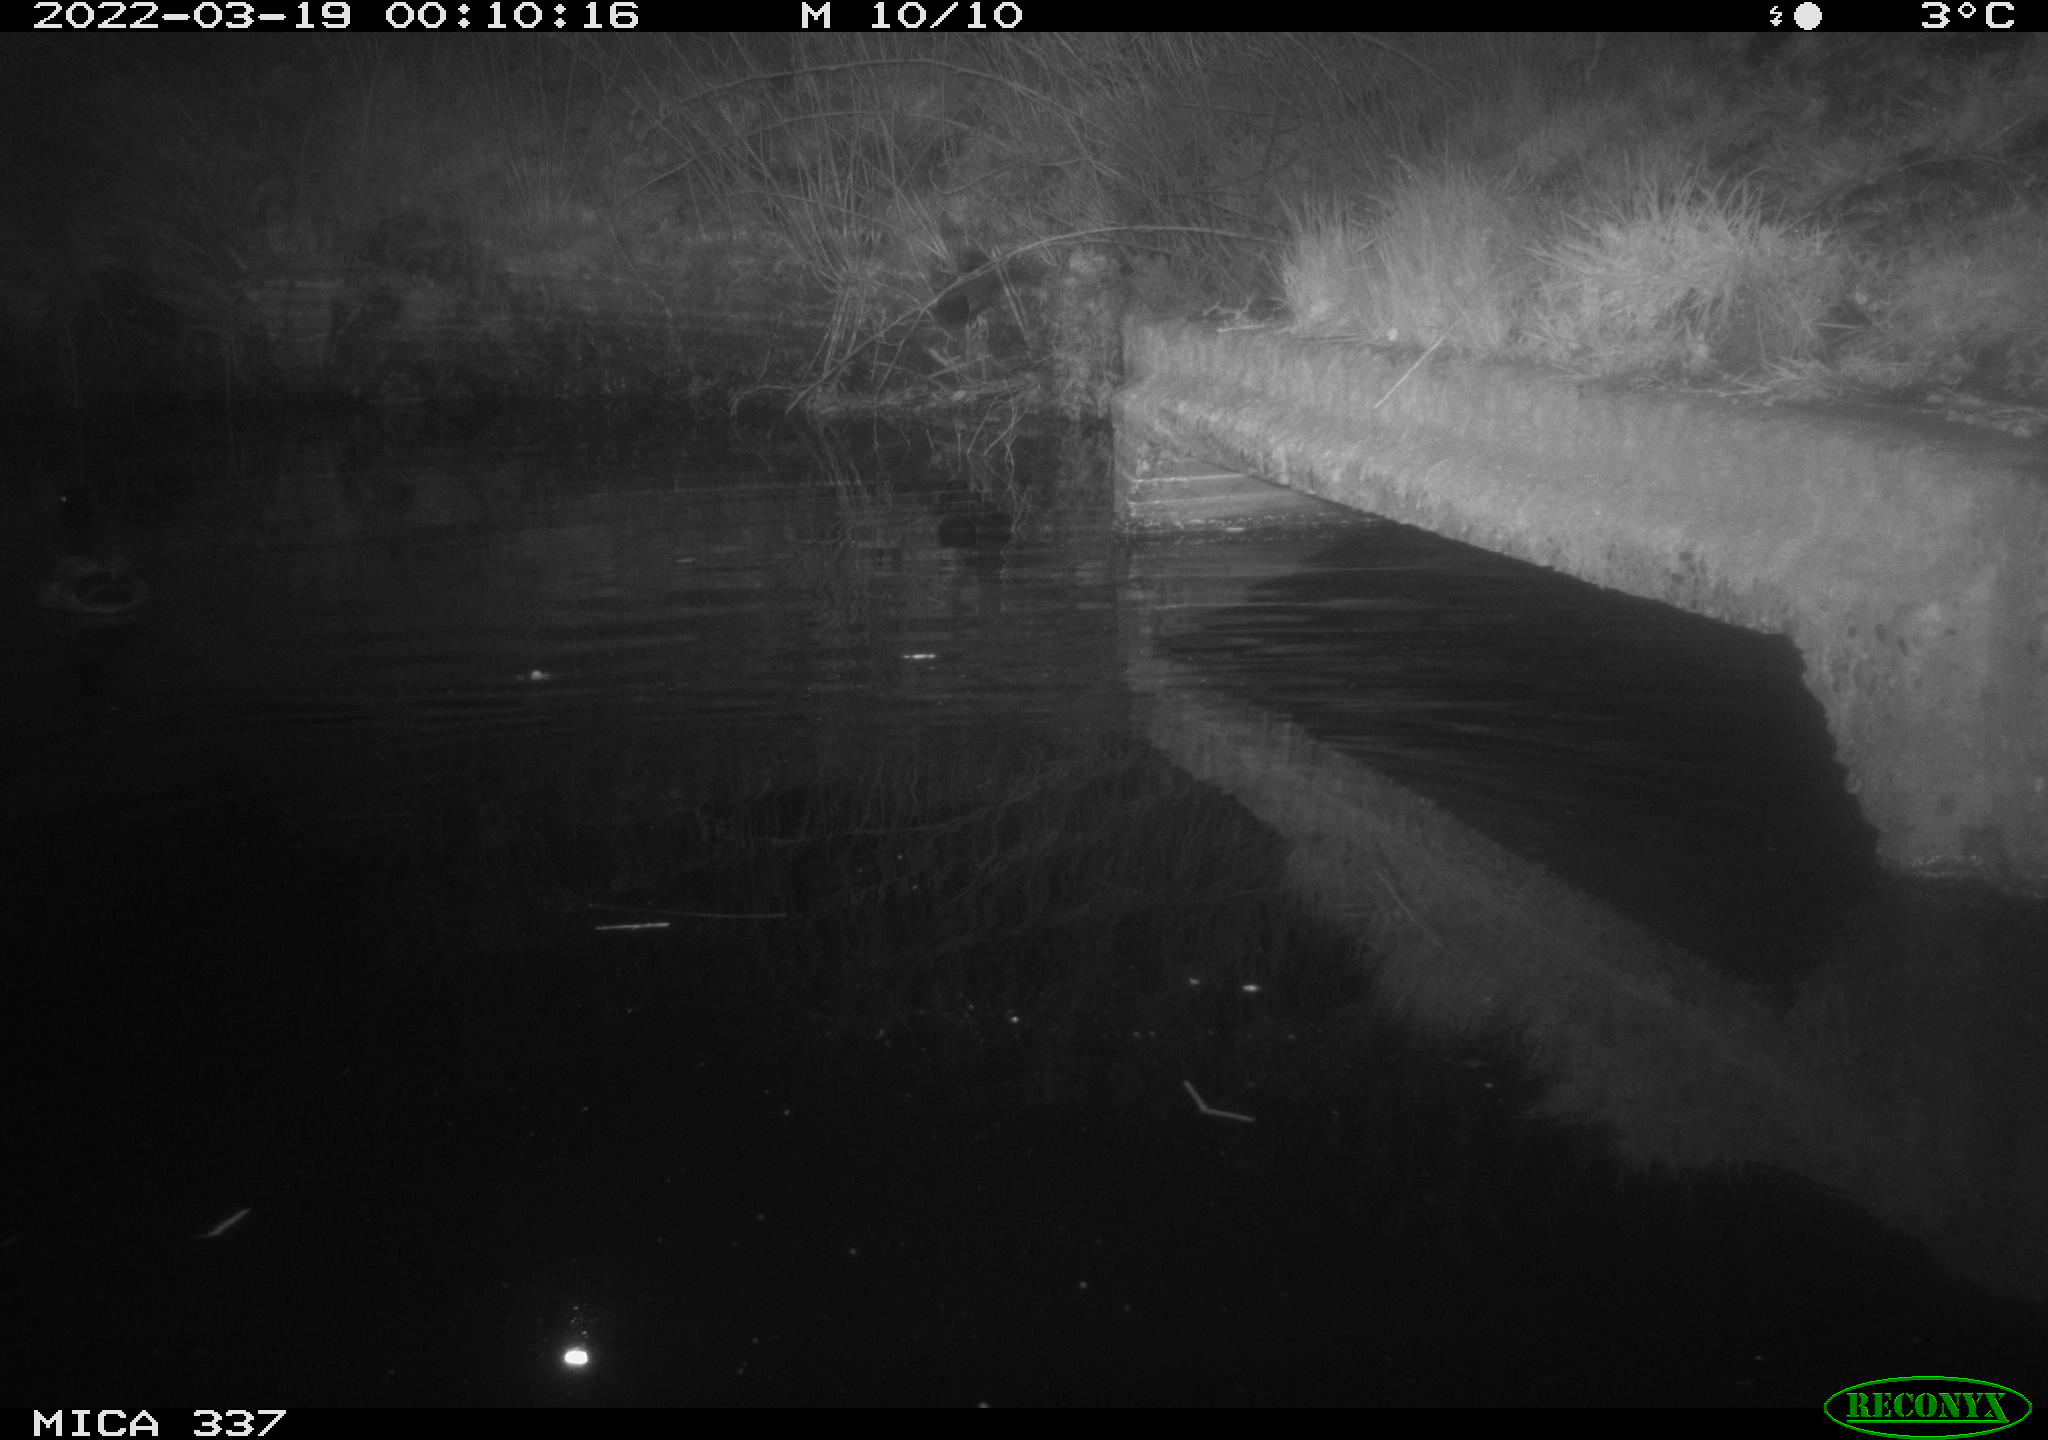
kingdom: Animalia
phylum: Chordata
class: Aves
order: Anseriformes
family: Anatidae
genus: Anas
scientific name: Anas platyrhynchos
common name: Mallard
